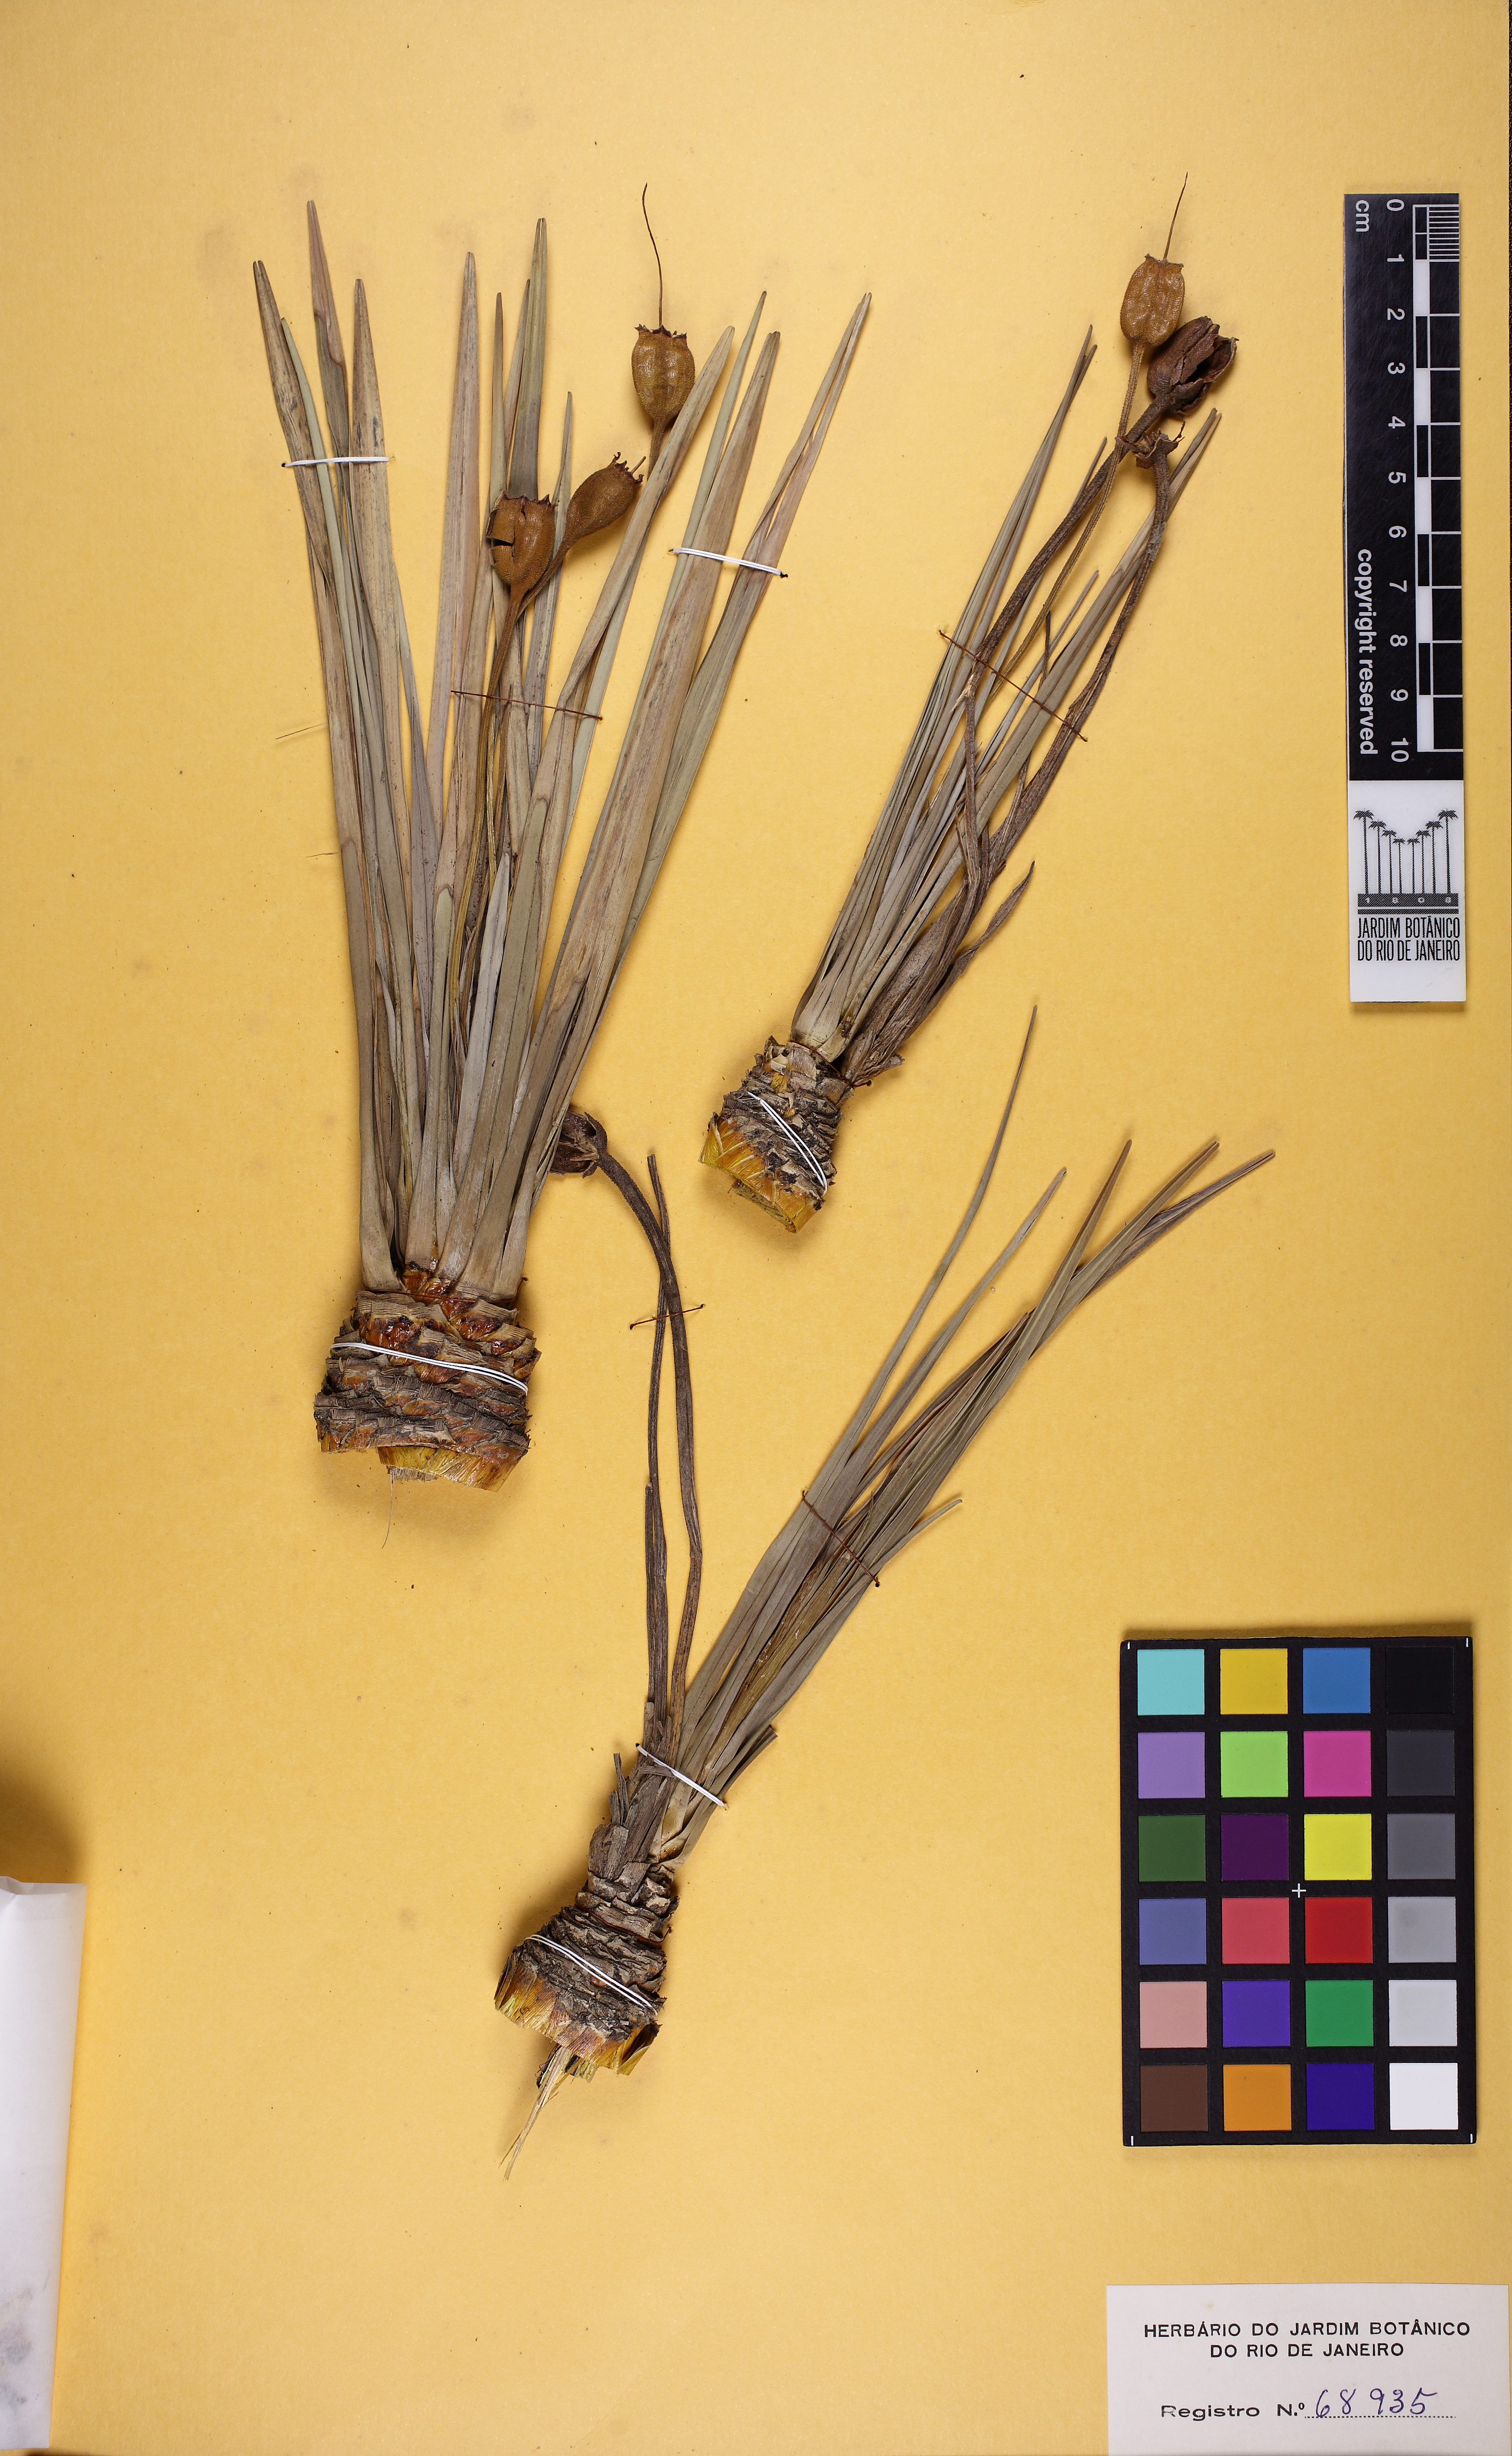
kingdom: Plantae
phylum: Tracheophyta
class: Liliopsida
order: Pandanales
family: Velloziaceae
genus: Vellozia
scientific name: Vellozia piresiana
